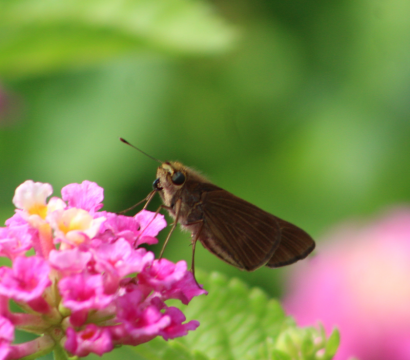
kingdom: Animalia
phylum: Arthropoda
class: Insecta
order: Lepidoptera
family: Hesperiidae
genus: Panoquina
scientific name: Panoquina ocola
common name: Ocola Skipper
